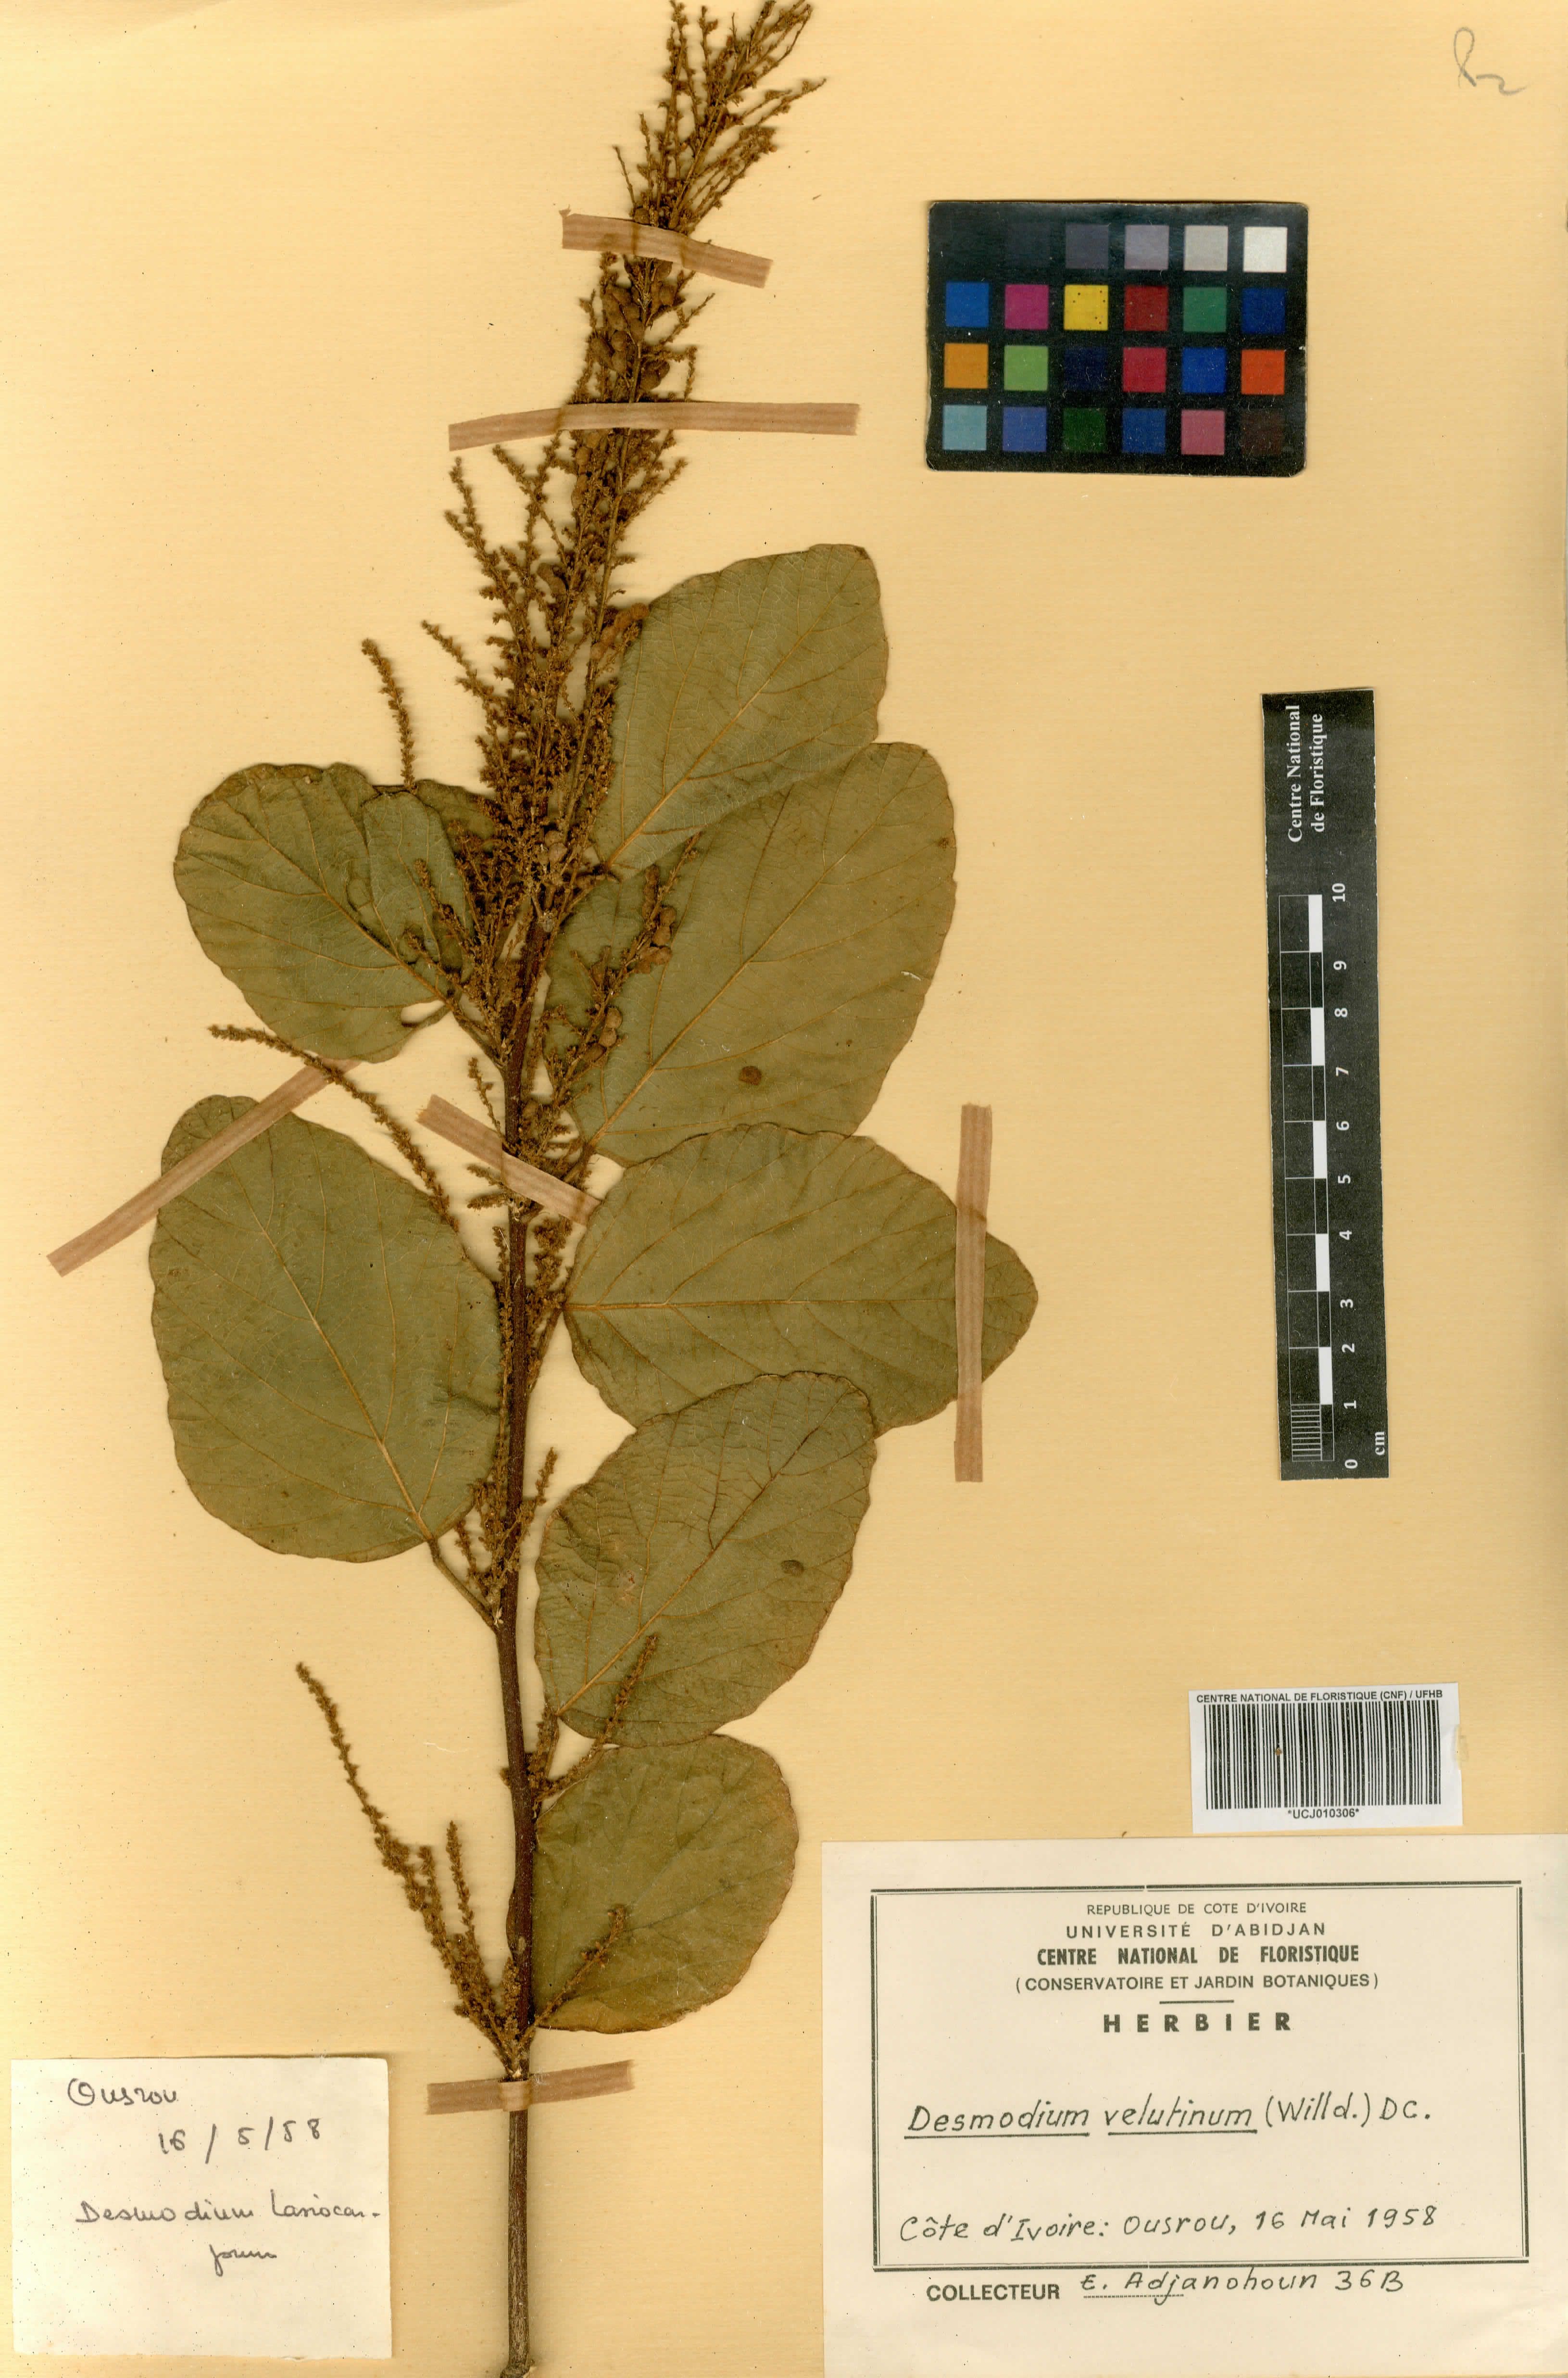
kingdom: Plantae
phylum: Tracheophyta
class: Magnoliopsida
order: Fabales
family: Fabaceae
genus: Polhillides
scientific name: Polhillides velutina
